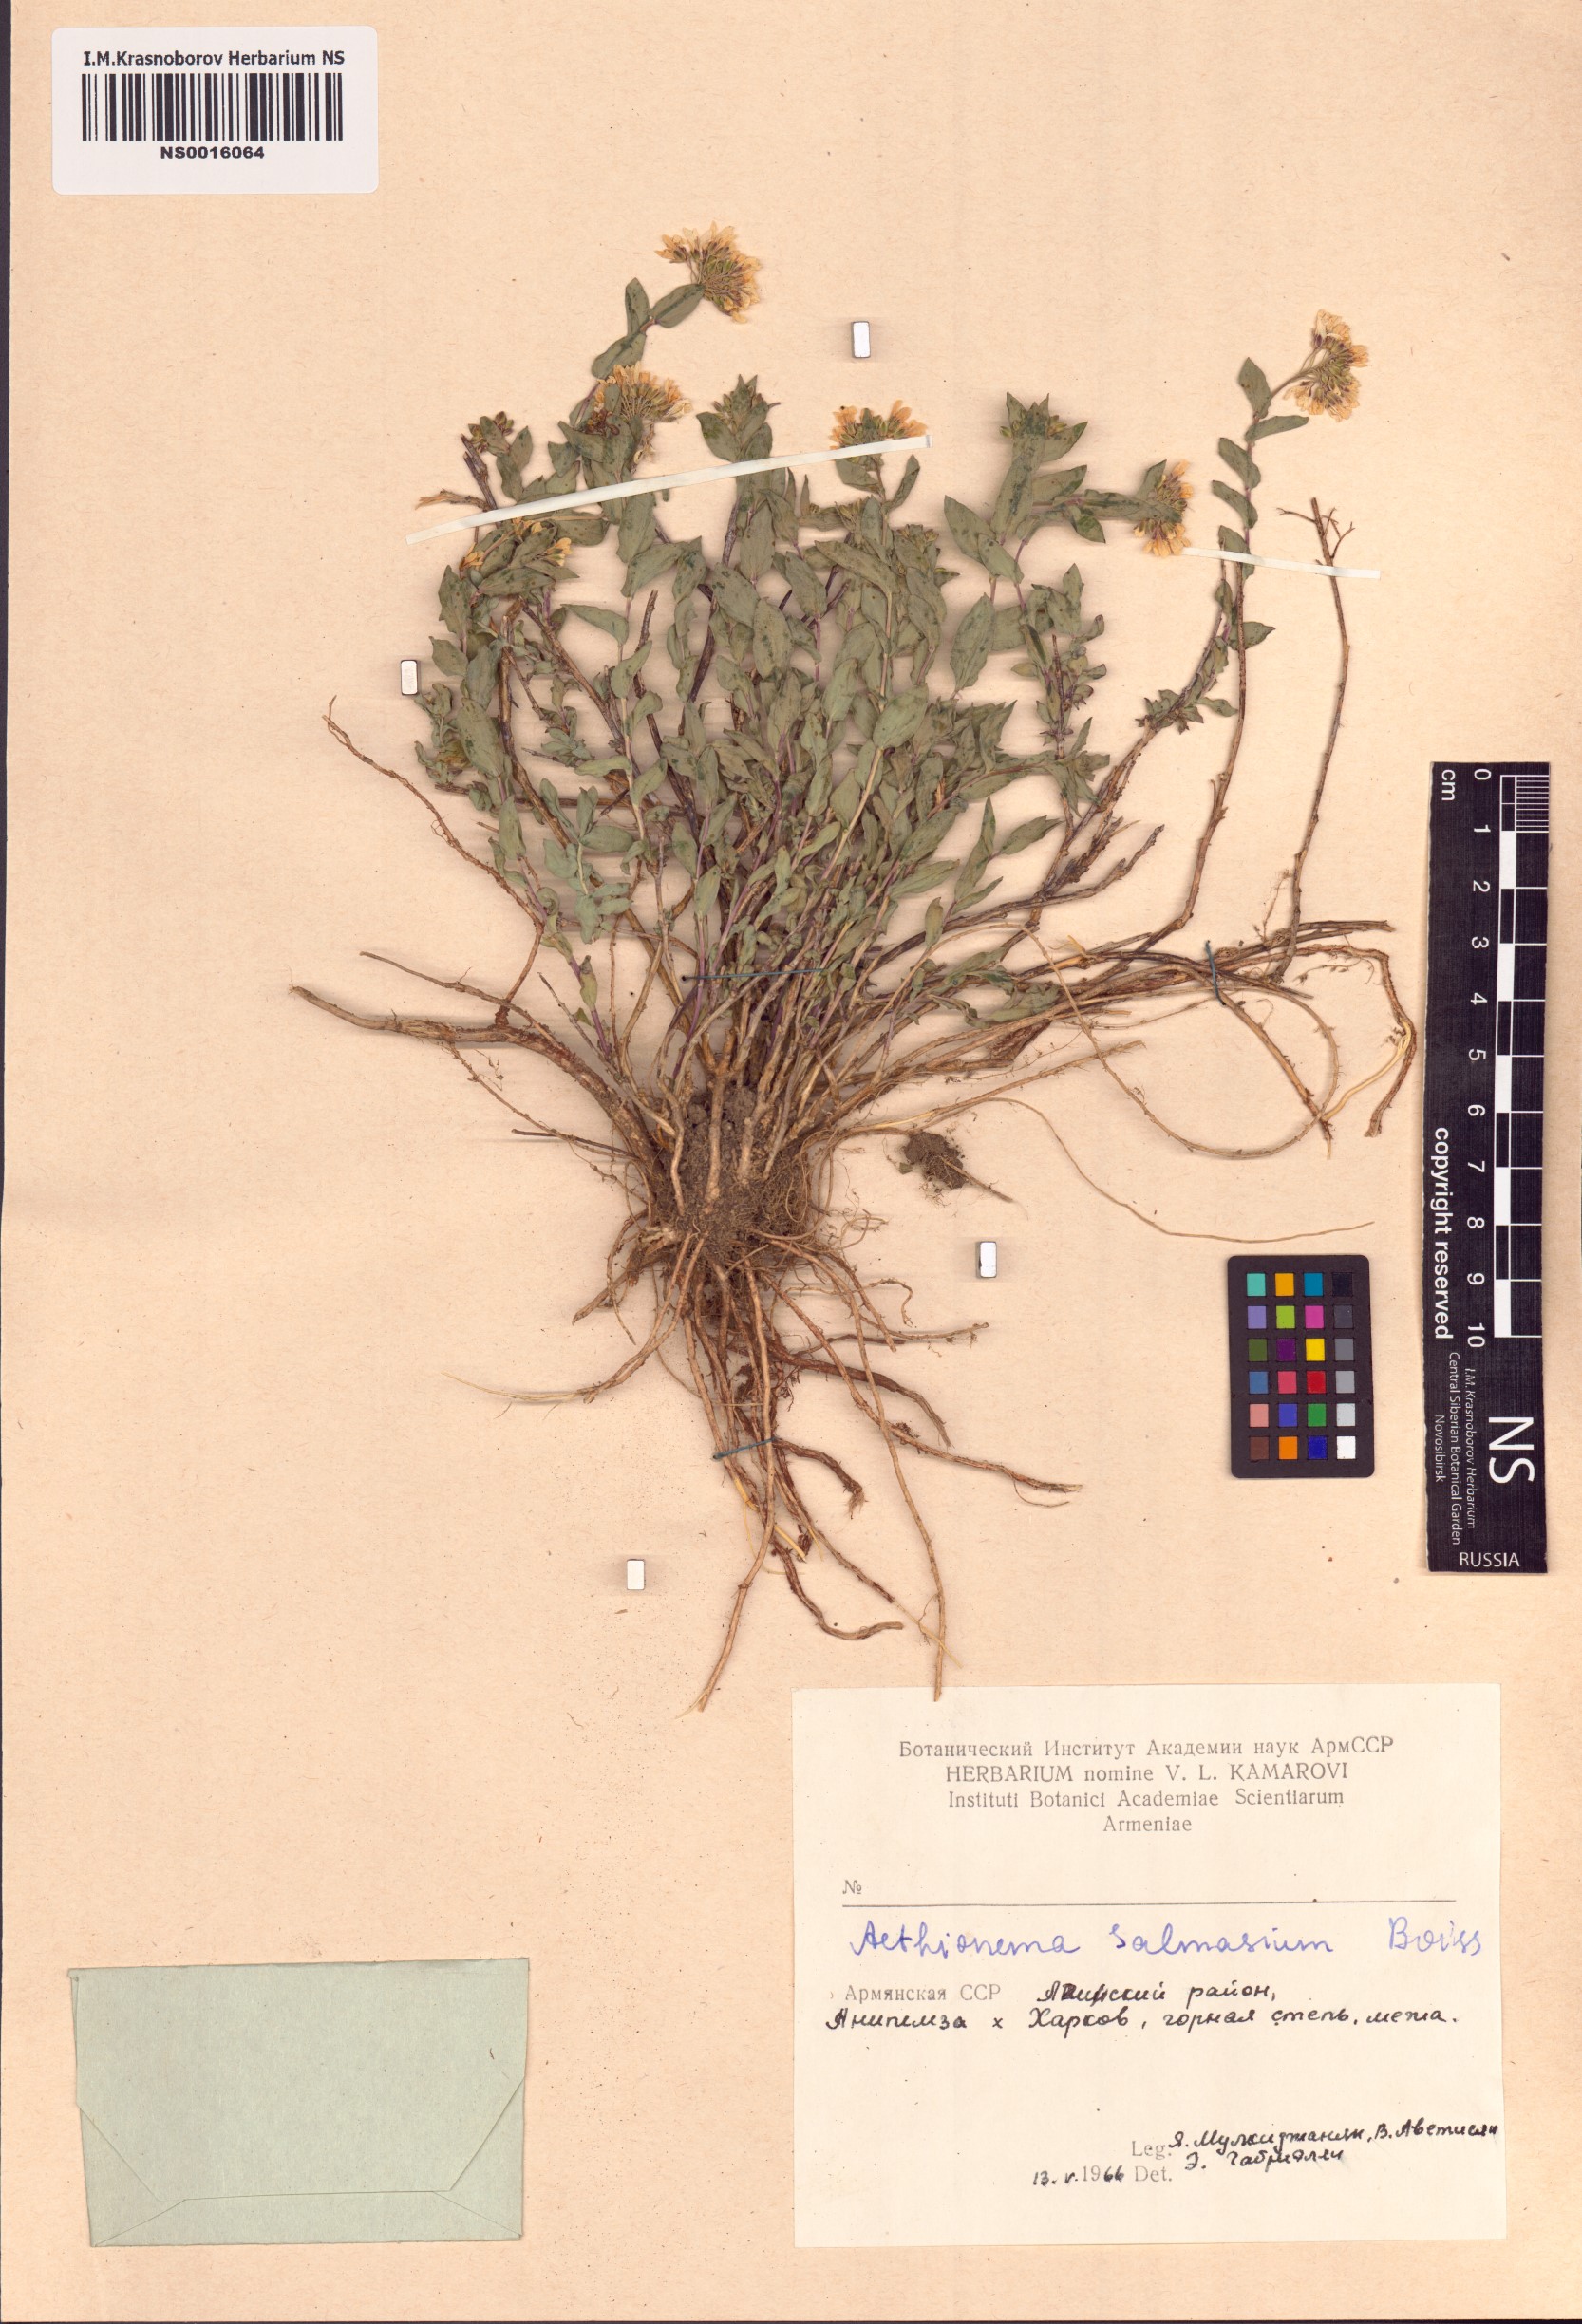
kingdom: Plantae
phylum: Tracheophyta
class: Magnoliopsida
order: Brassicales
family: Brassicaceae
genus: Noccaea
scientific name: Noccaea trinervia
